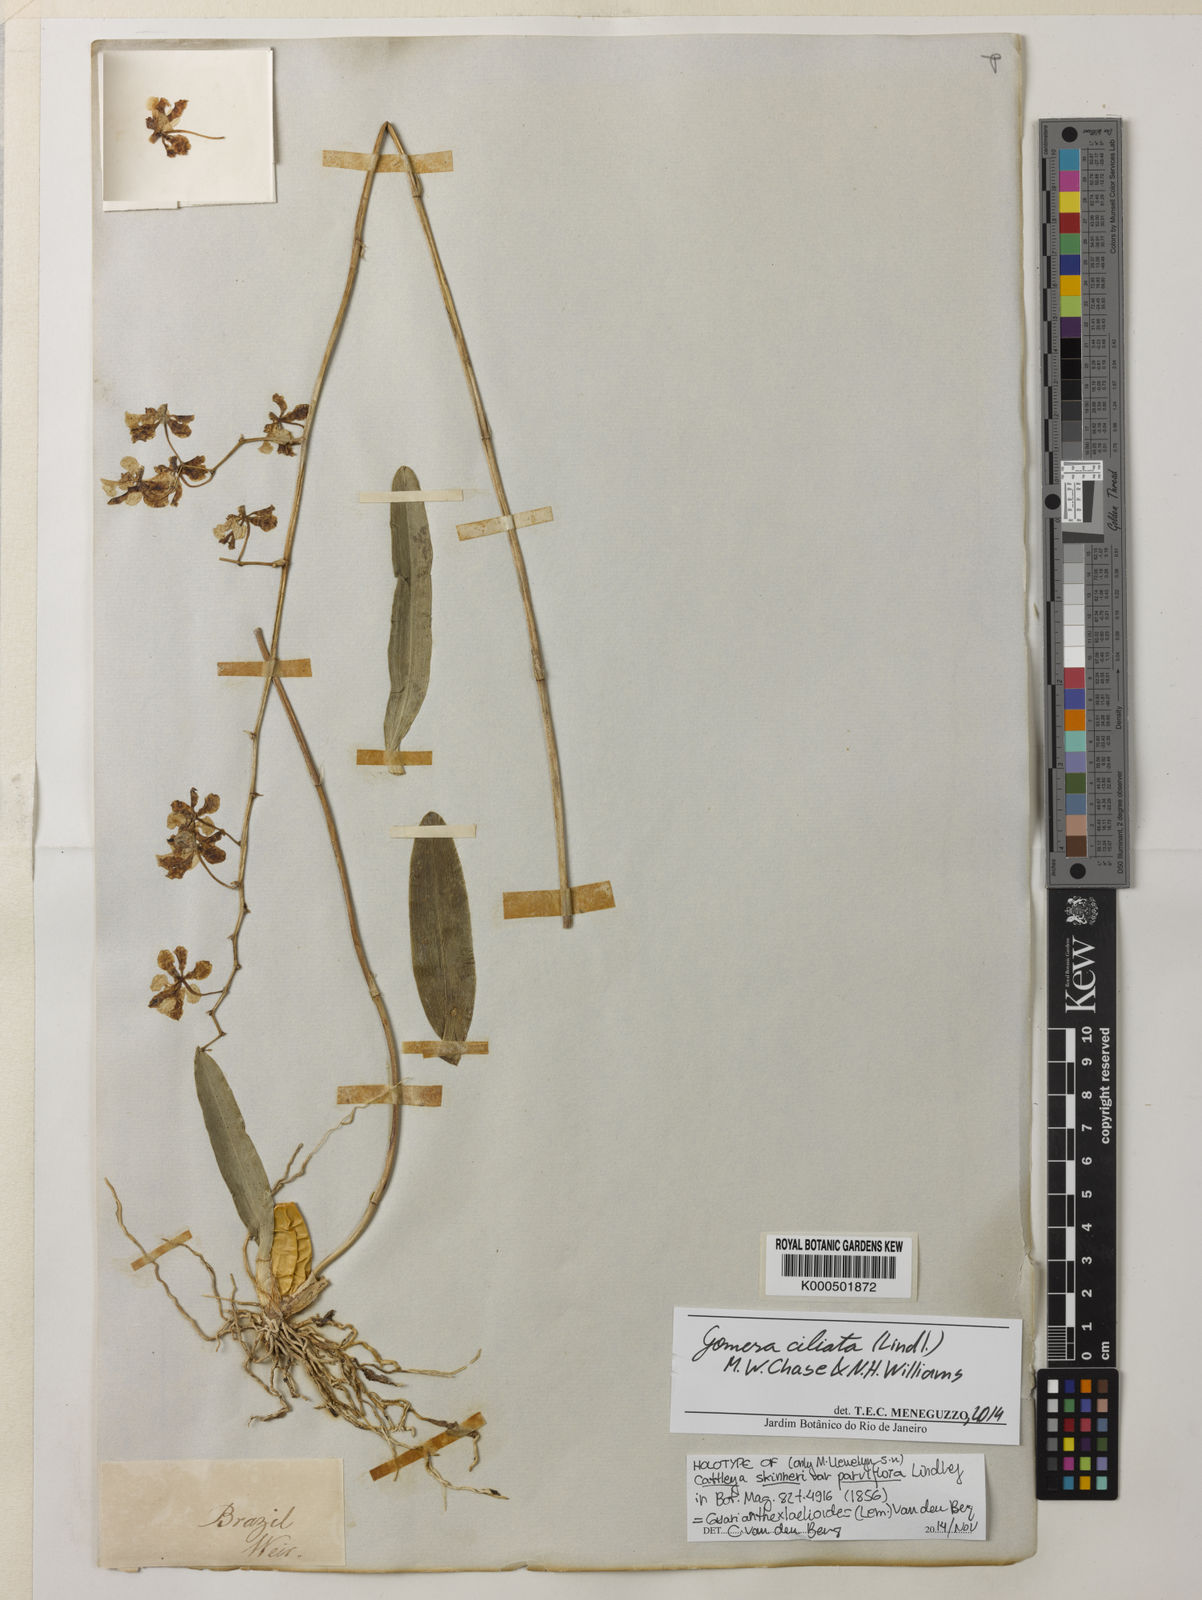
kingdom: Plantae
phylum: Tracheophyta
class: Liliopsida
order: Asparagales
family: Orchidaceae
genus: Gomesa
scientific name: Gomesa ciliata
